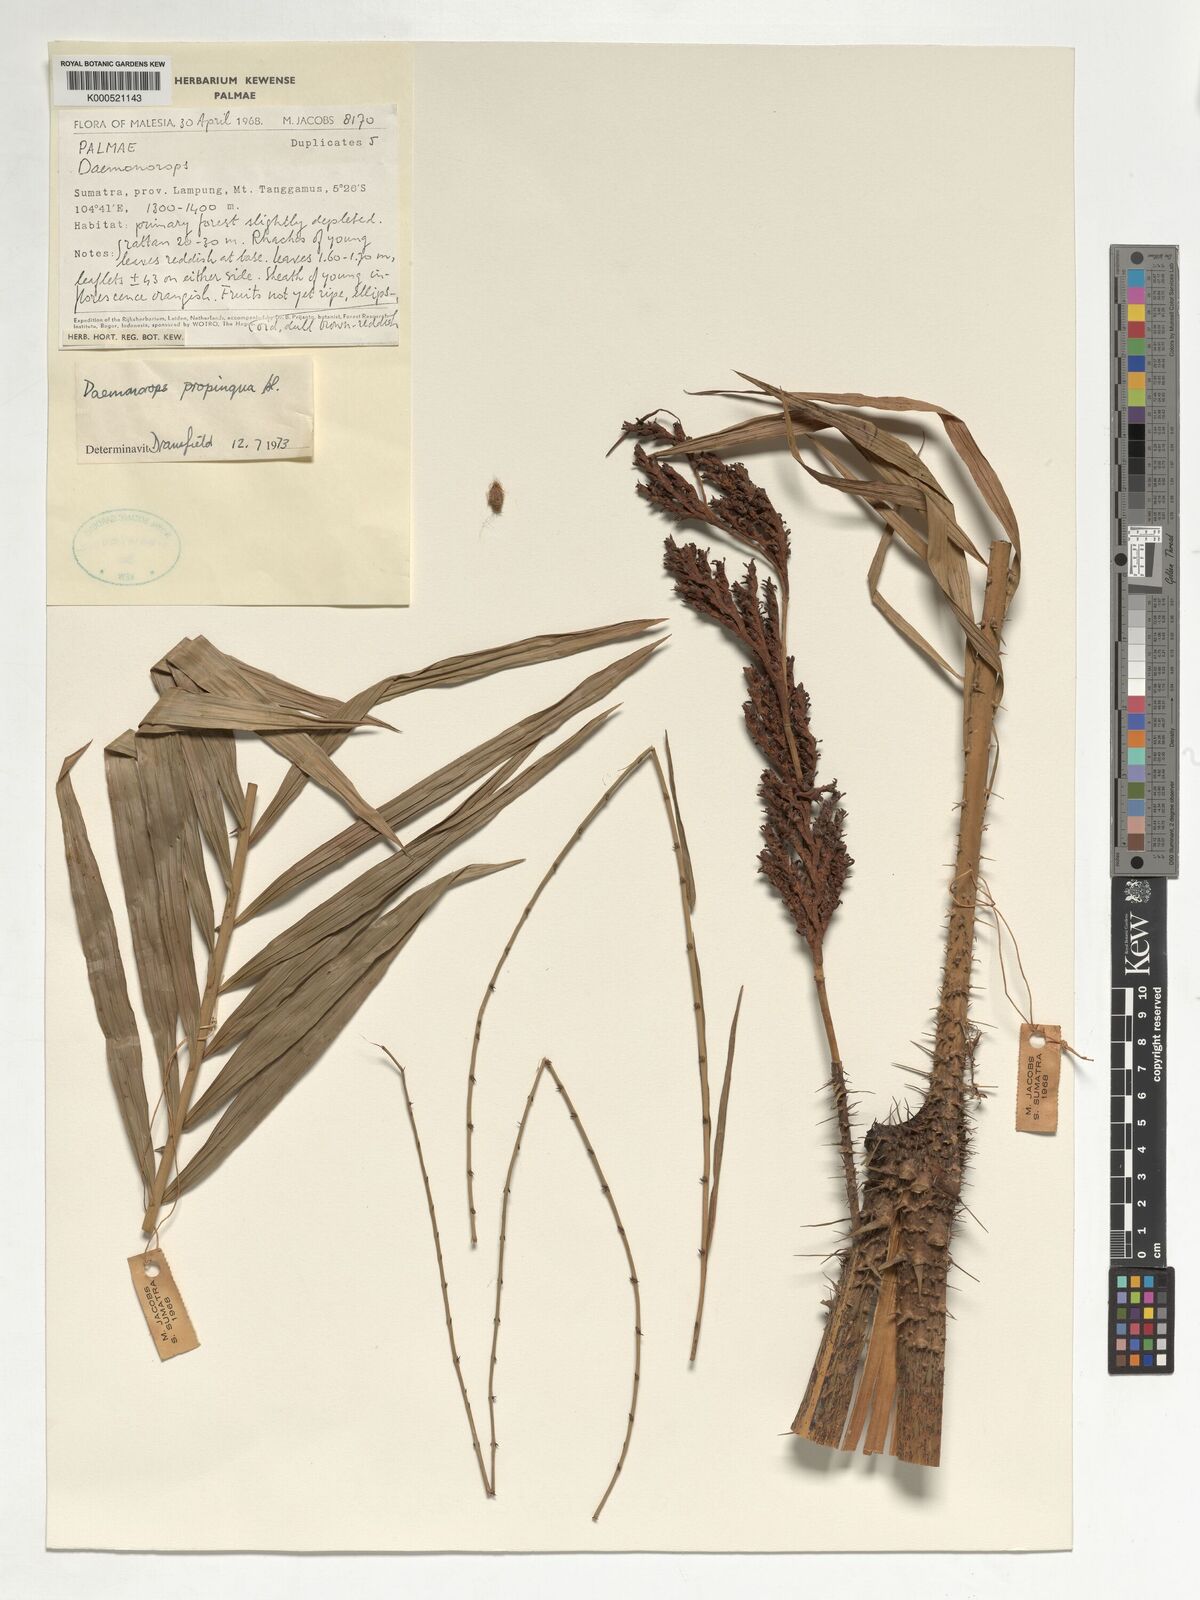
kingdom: Plantae
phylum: Tracheophyta
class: Liliopsida
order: Arecales
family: Arecaceae
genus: Calamus
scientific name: Calamus ruber
